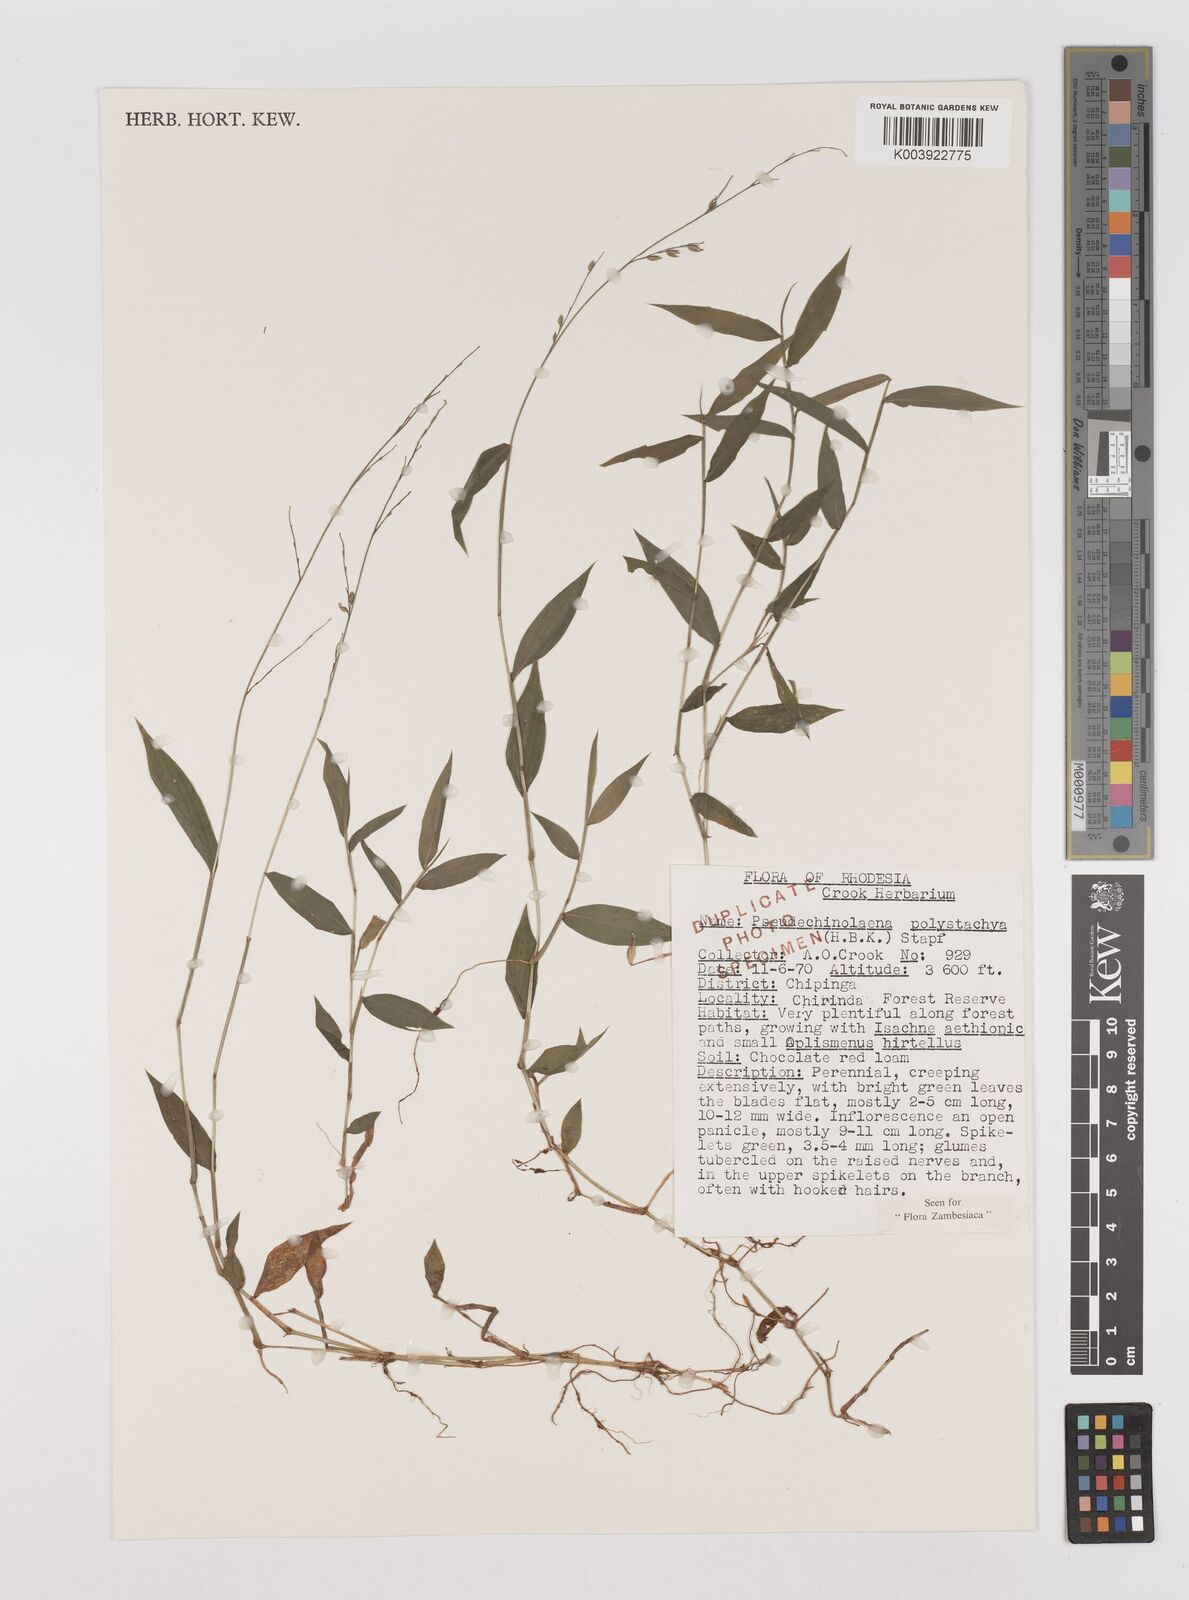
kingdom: Plantae
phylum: Tracheophyta
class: Liliopsida
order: Poales
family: Poaceae
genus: Pseudechinolaena
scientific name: Pseudechinolaena polystachya
